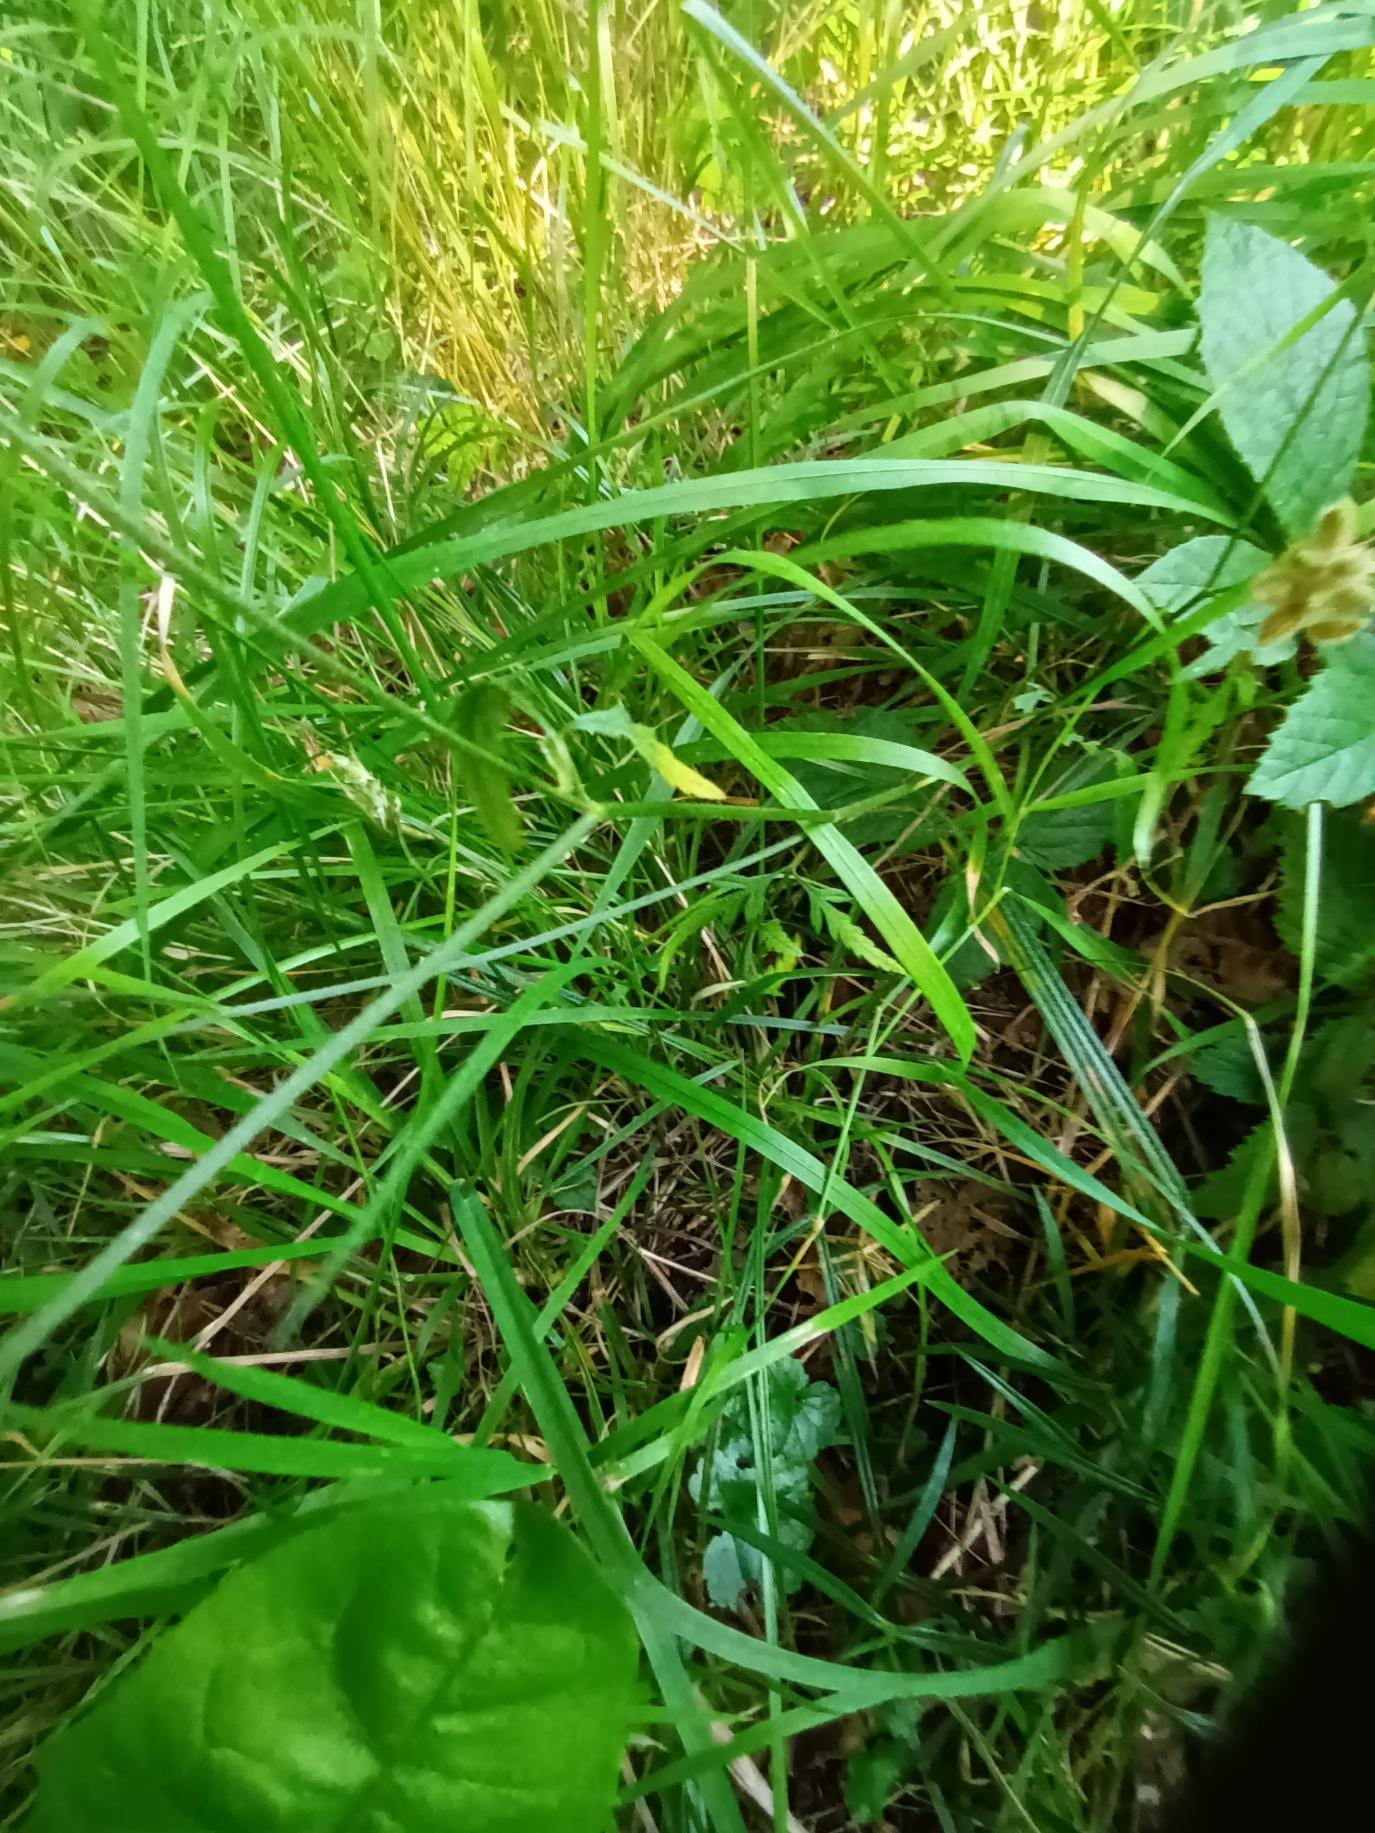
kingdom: Plantae
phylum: Tracheophyta
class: Magnoliopsida
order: Apiales
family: Apiaceae
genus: Torilis
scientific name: Torilis japonica
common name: Hvas randfrø
